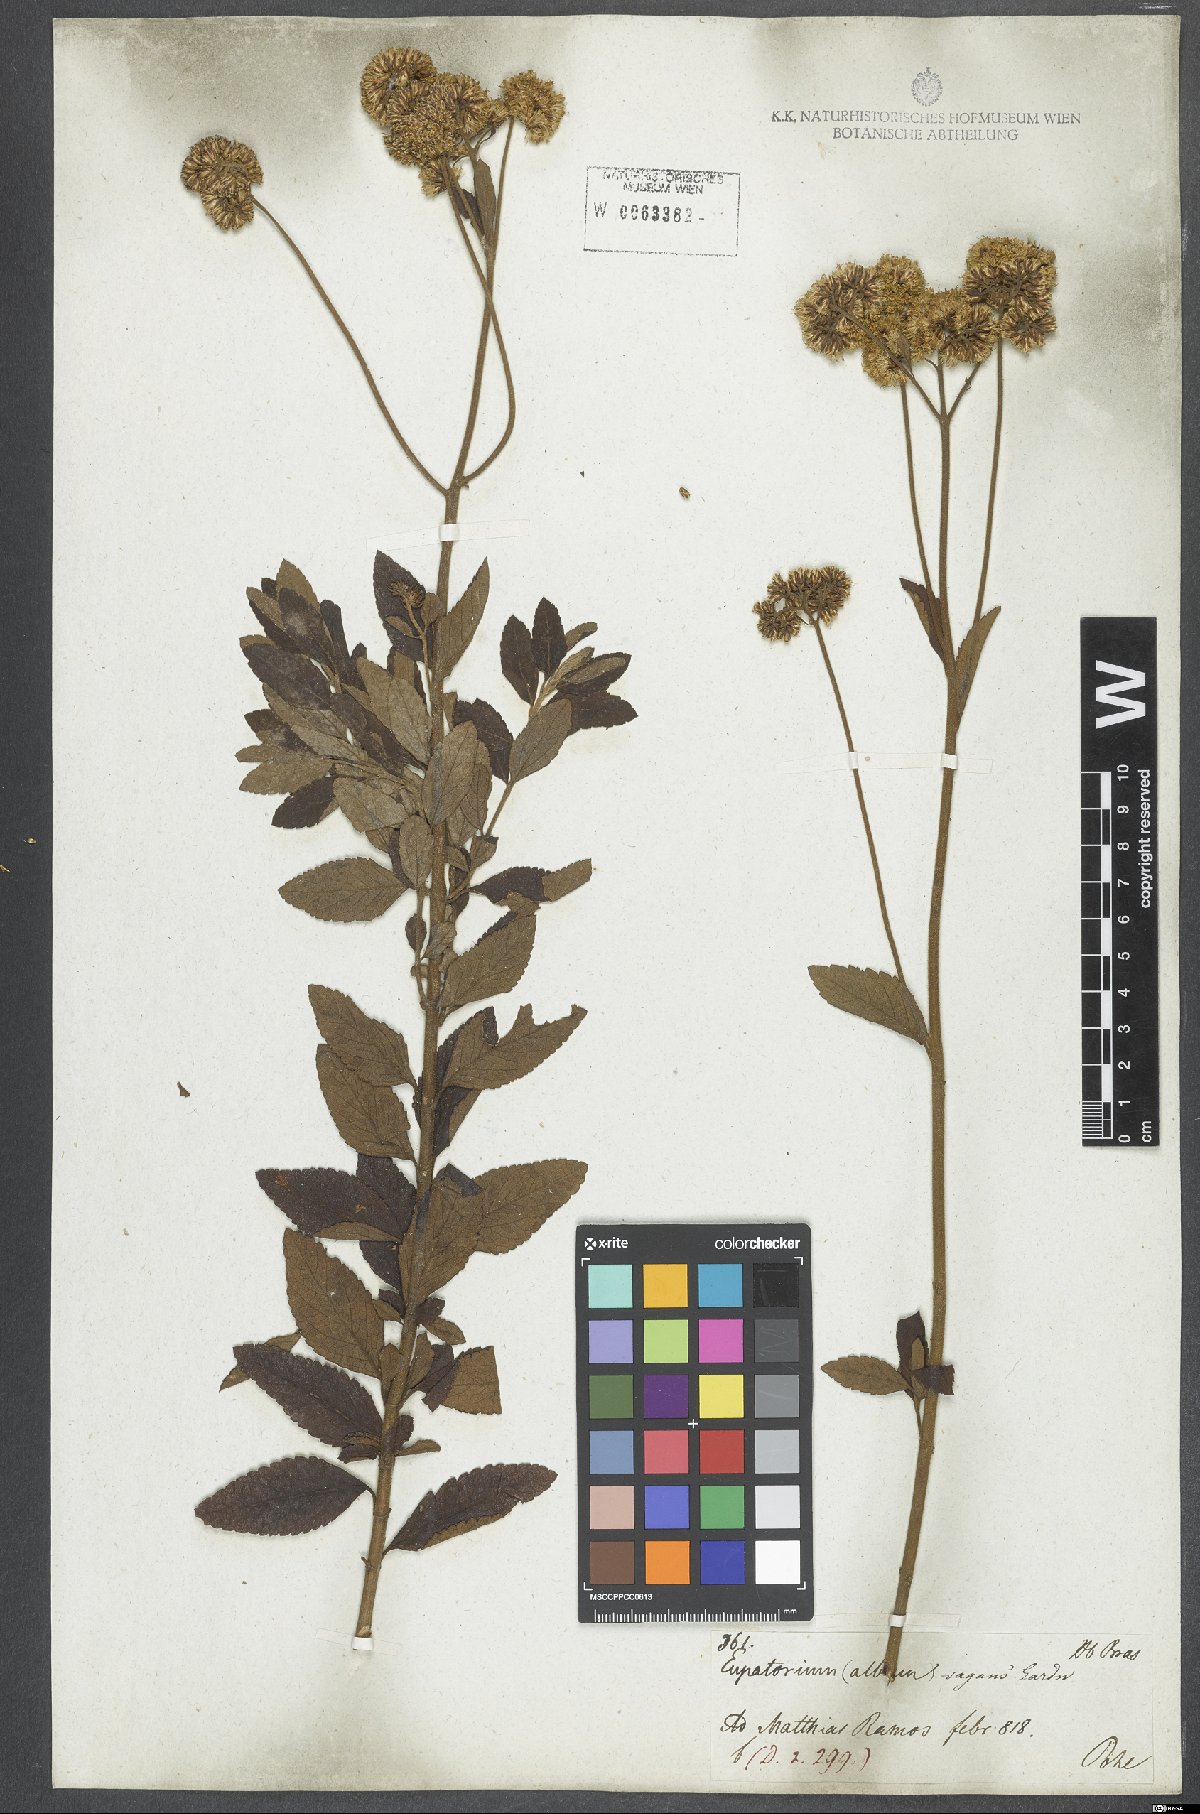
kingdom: Plantae
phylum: Tracheophyta
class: Magnoliopsida
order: Asterales
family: Asteraceae
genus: Grazielia
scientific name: Grazielia gaudichaudeana
